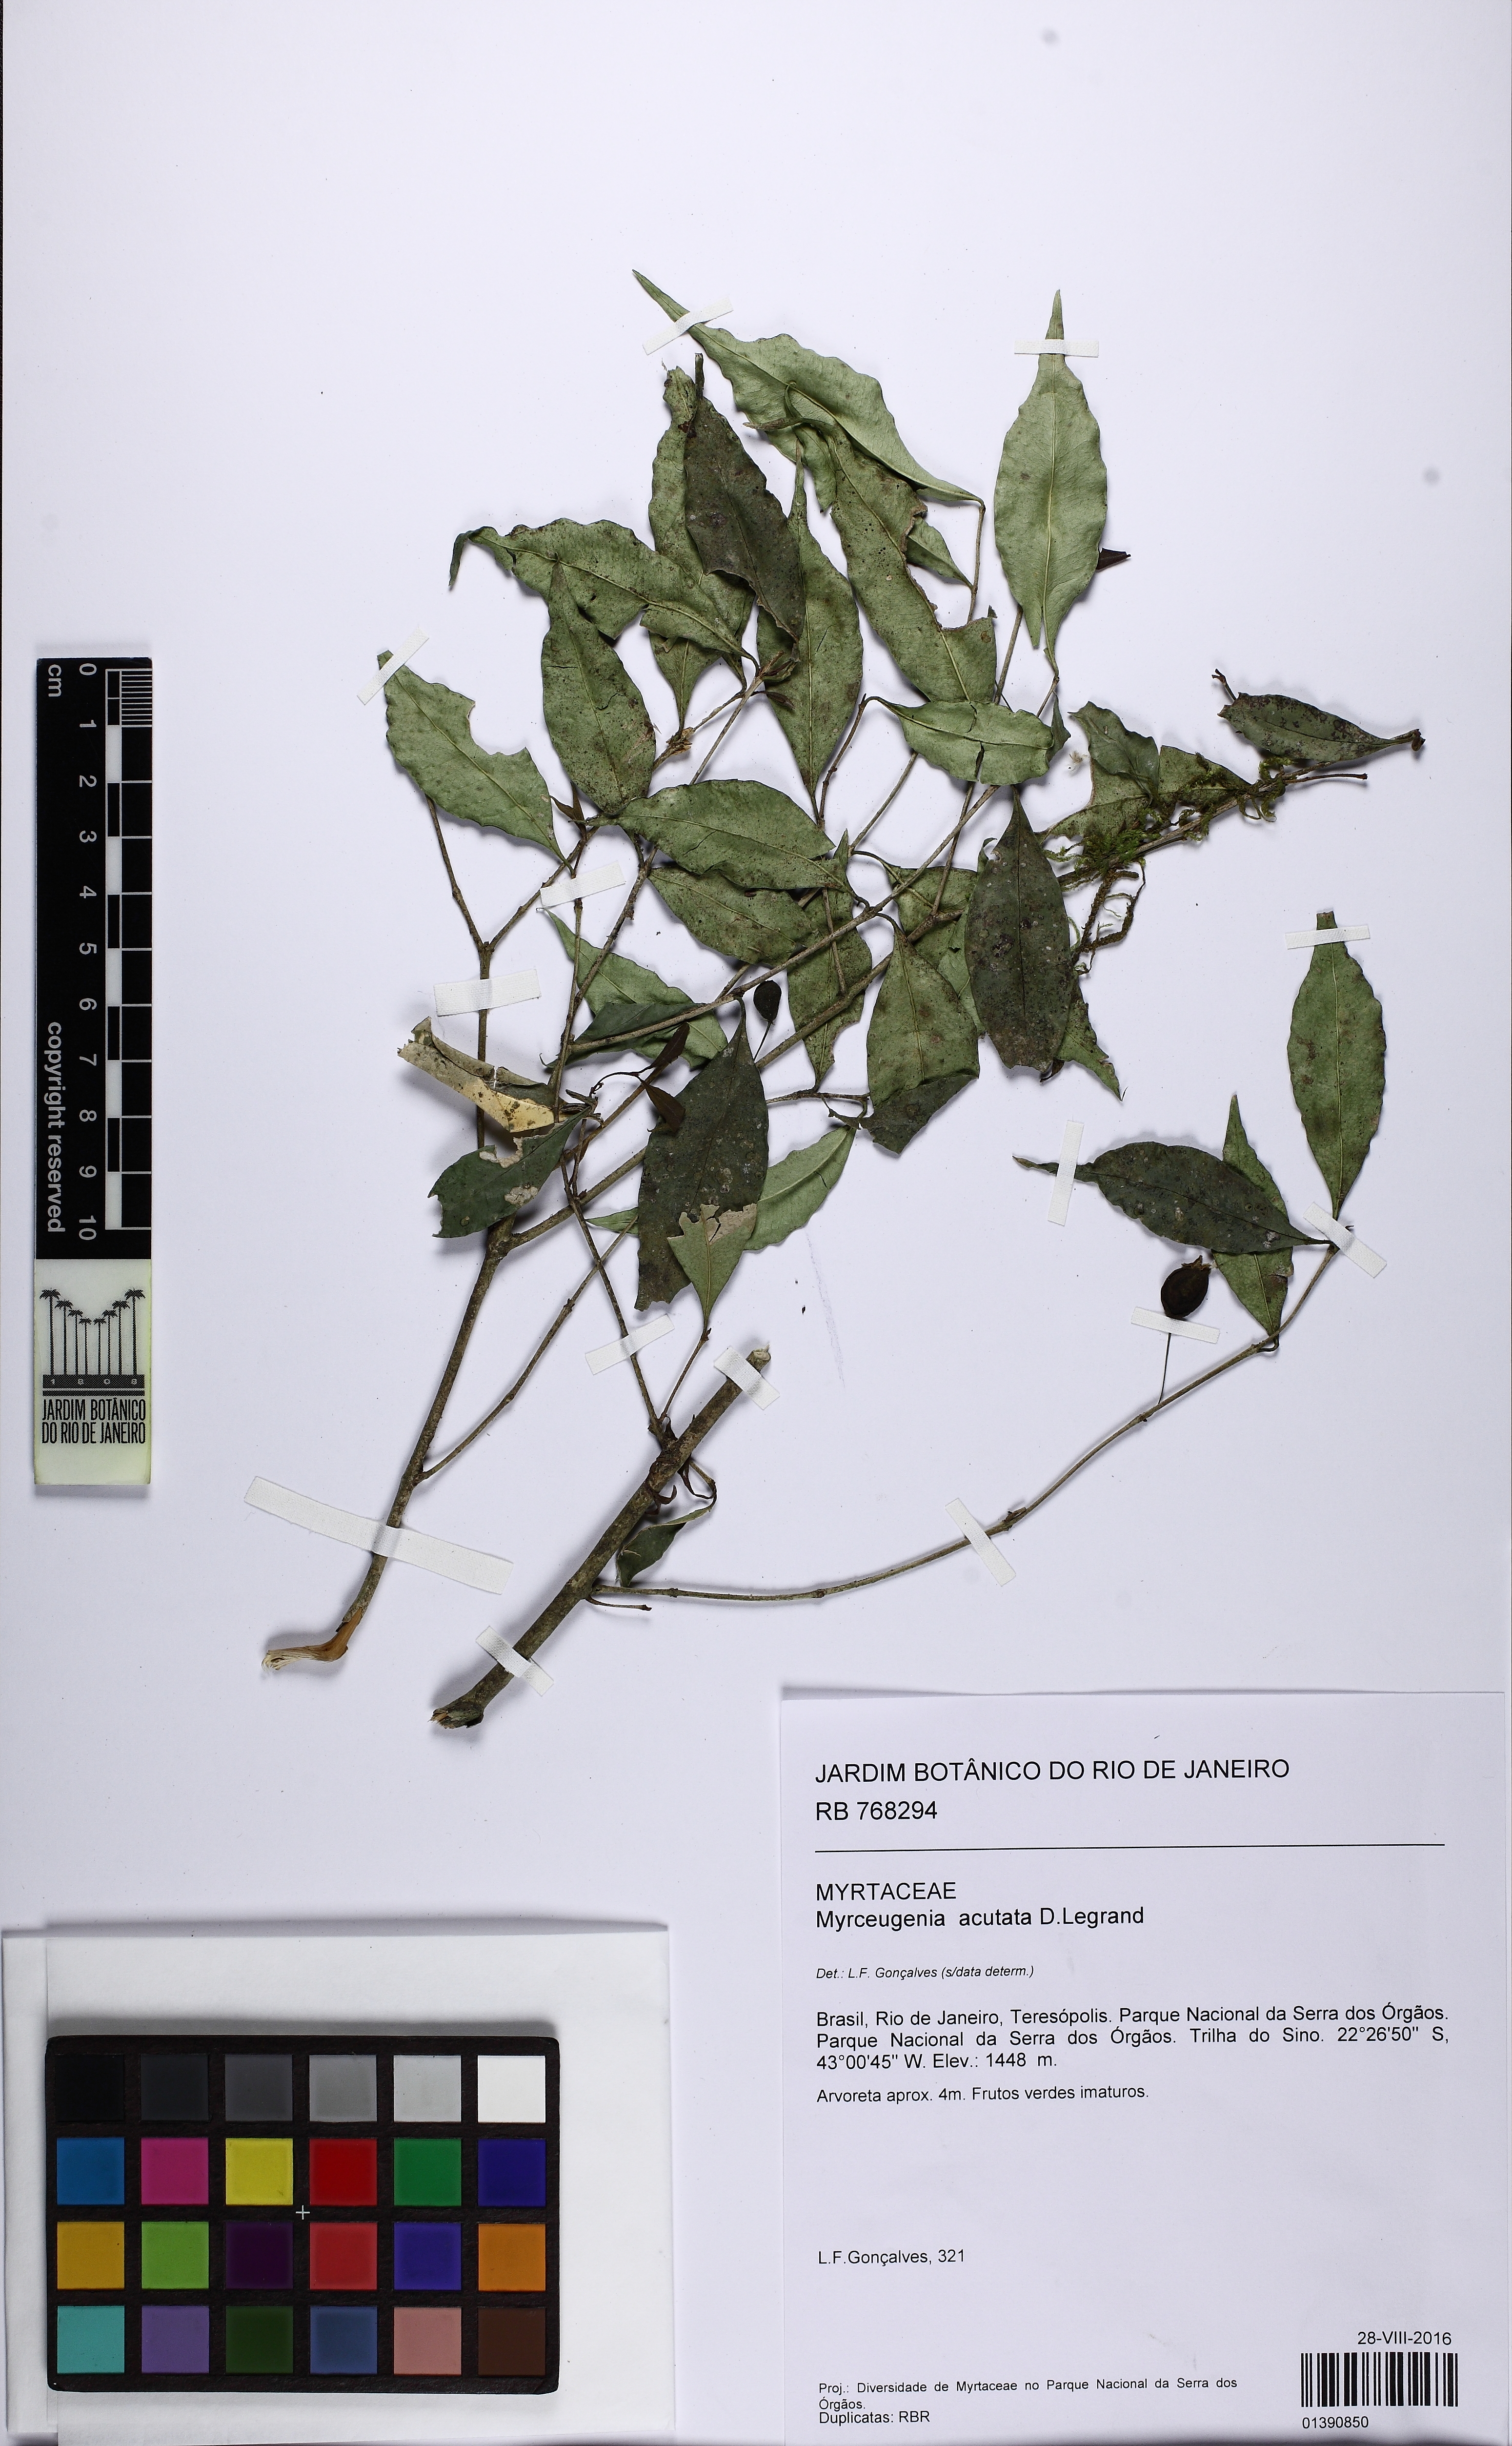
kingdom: Plantae
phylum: Tracheophyta
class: Magnoliopsida
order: Myrtales
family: Myrtaceae
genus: Myrceugenia
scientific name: Myrceugenia ovata
